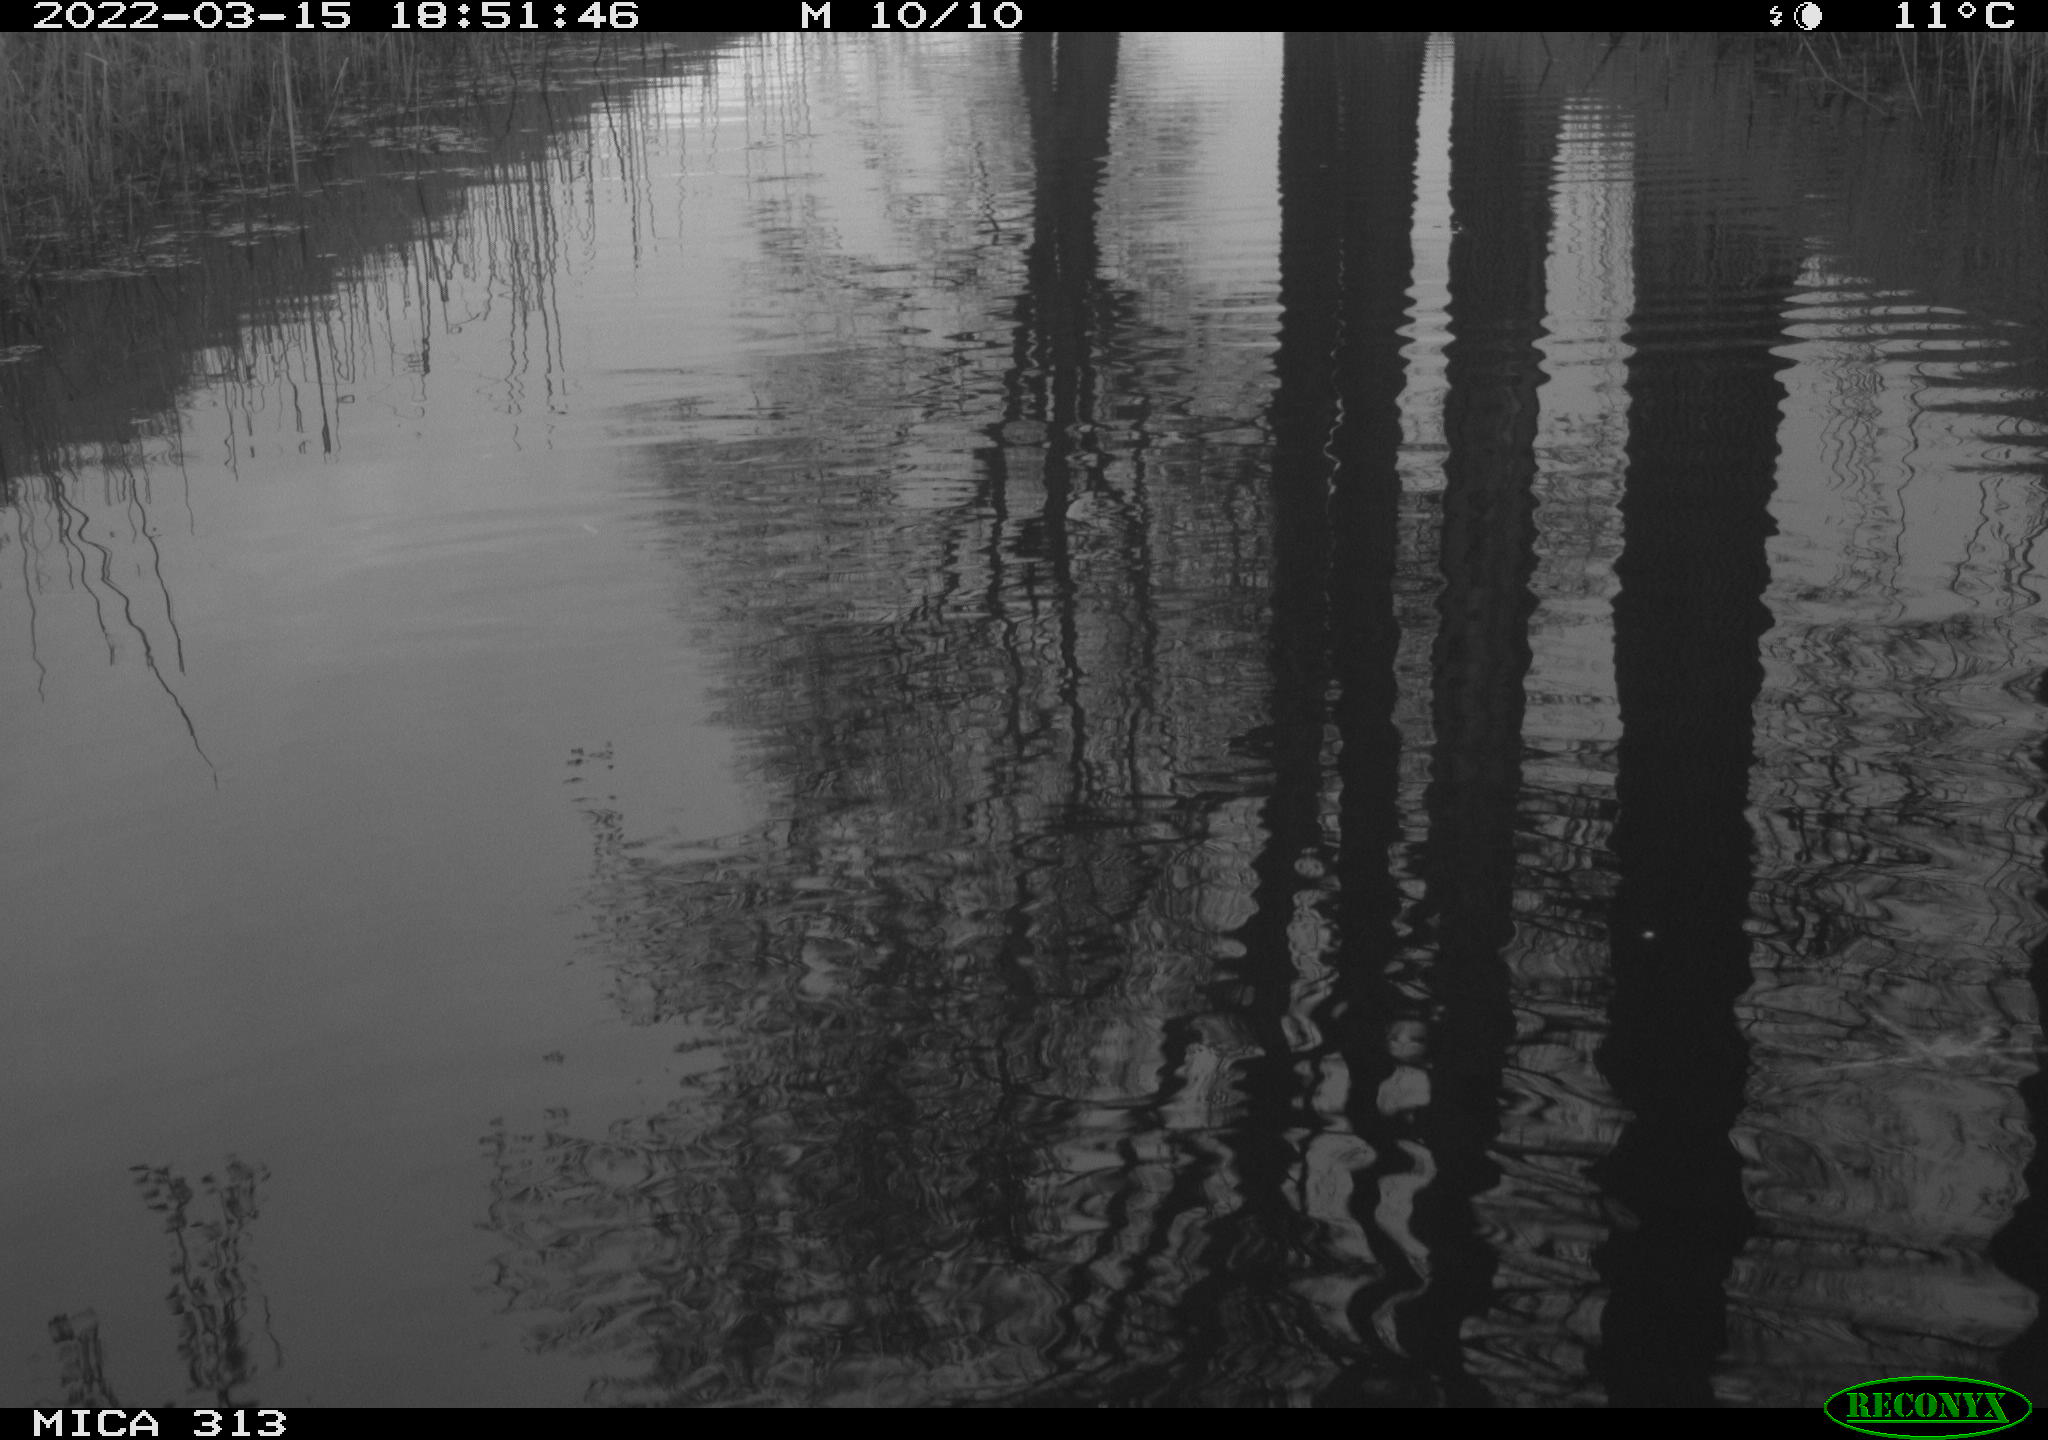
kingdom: Animalia
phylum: Chordata
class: Aves
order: Gruiformes
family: Rallidae
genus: Fulica
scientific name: Fulica atra
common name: Eurasian coot
